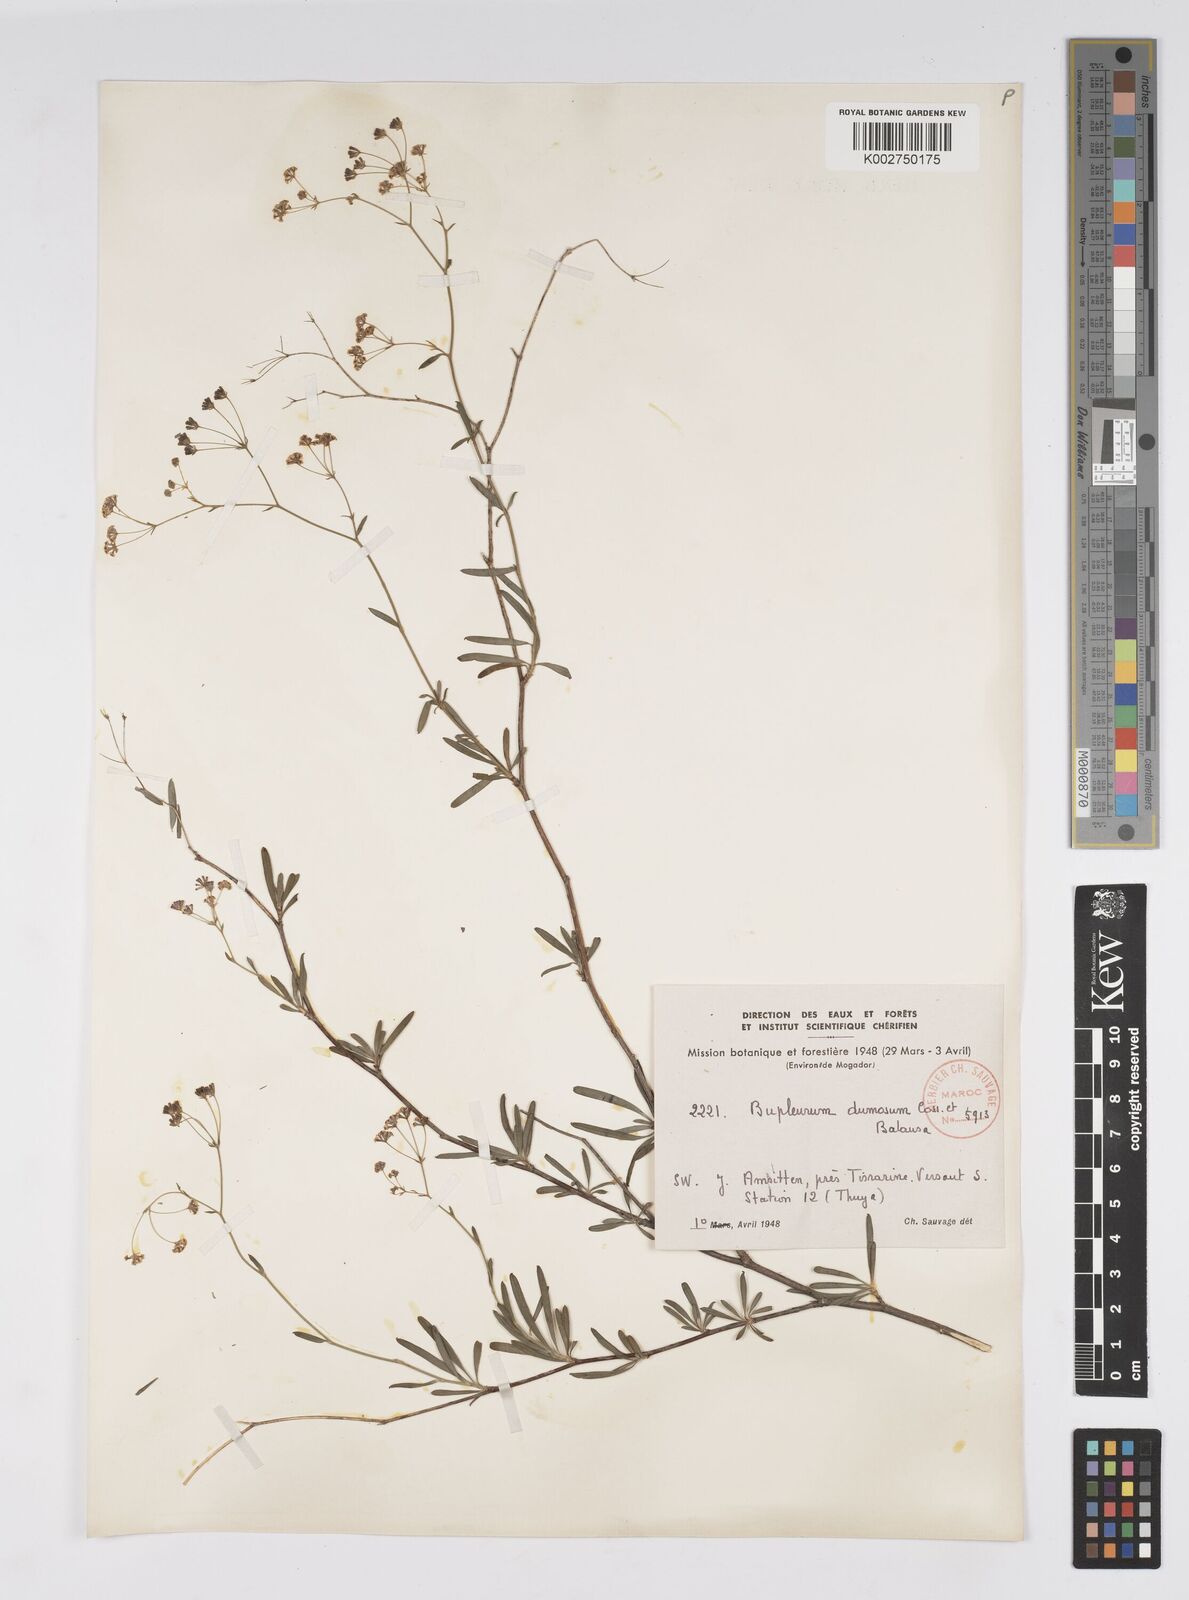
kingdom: Plantae
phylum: Tracheophyta
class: Magnoliopsida
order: Apiales
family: Apiaceae
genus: Bupleurum
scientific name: Bupleurum dumosum
